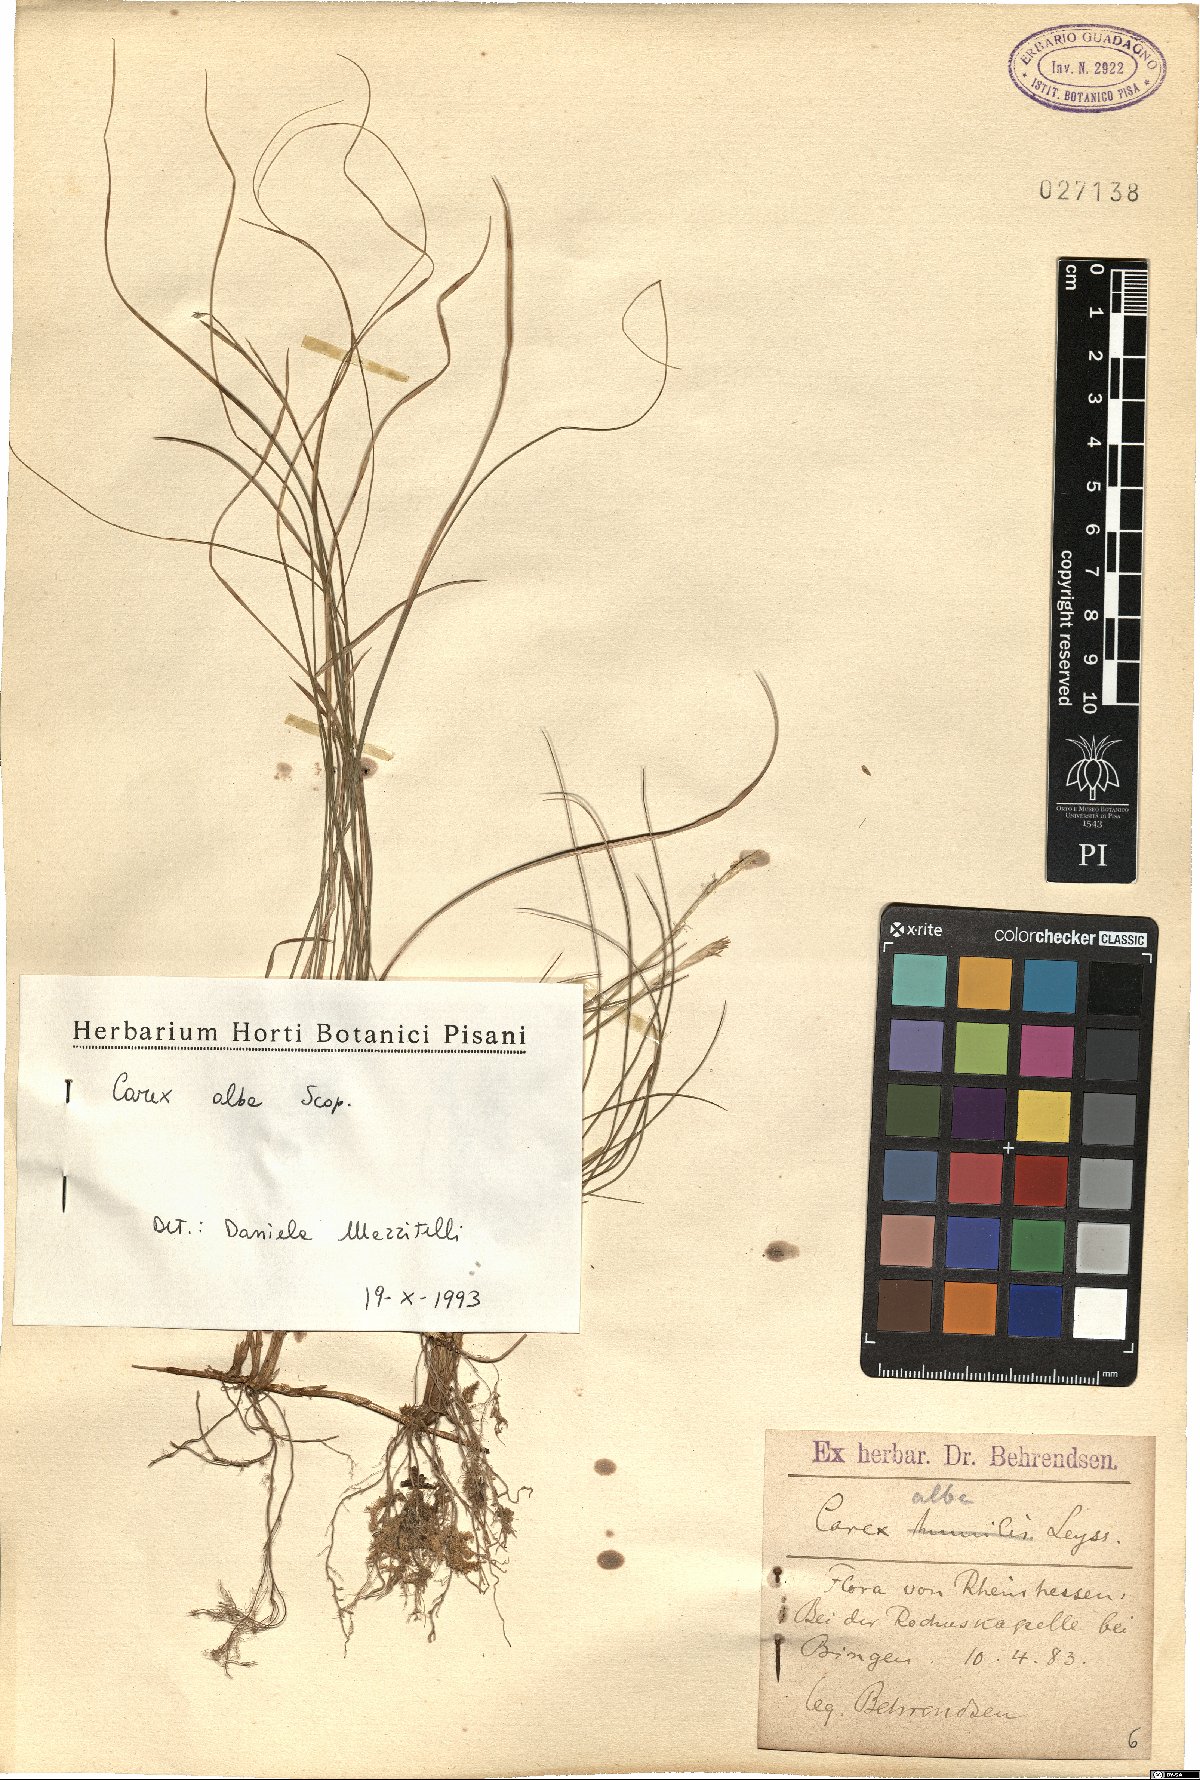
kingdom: Plantae
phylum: Tracheophyta
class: Liliopsida
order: Poales
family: Cyperaceae
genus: Carex
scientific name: Carex alba
